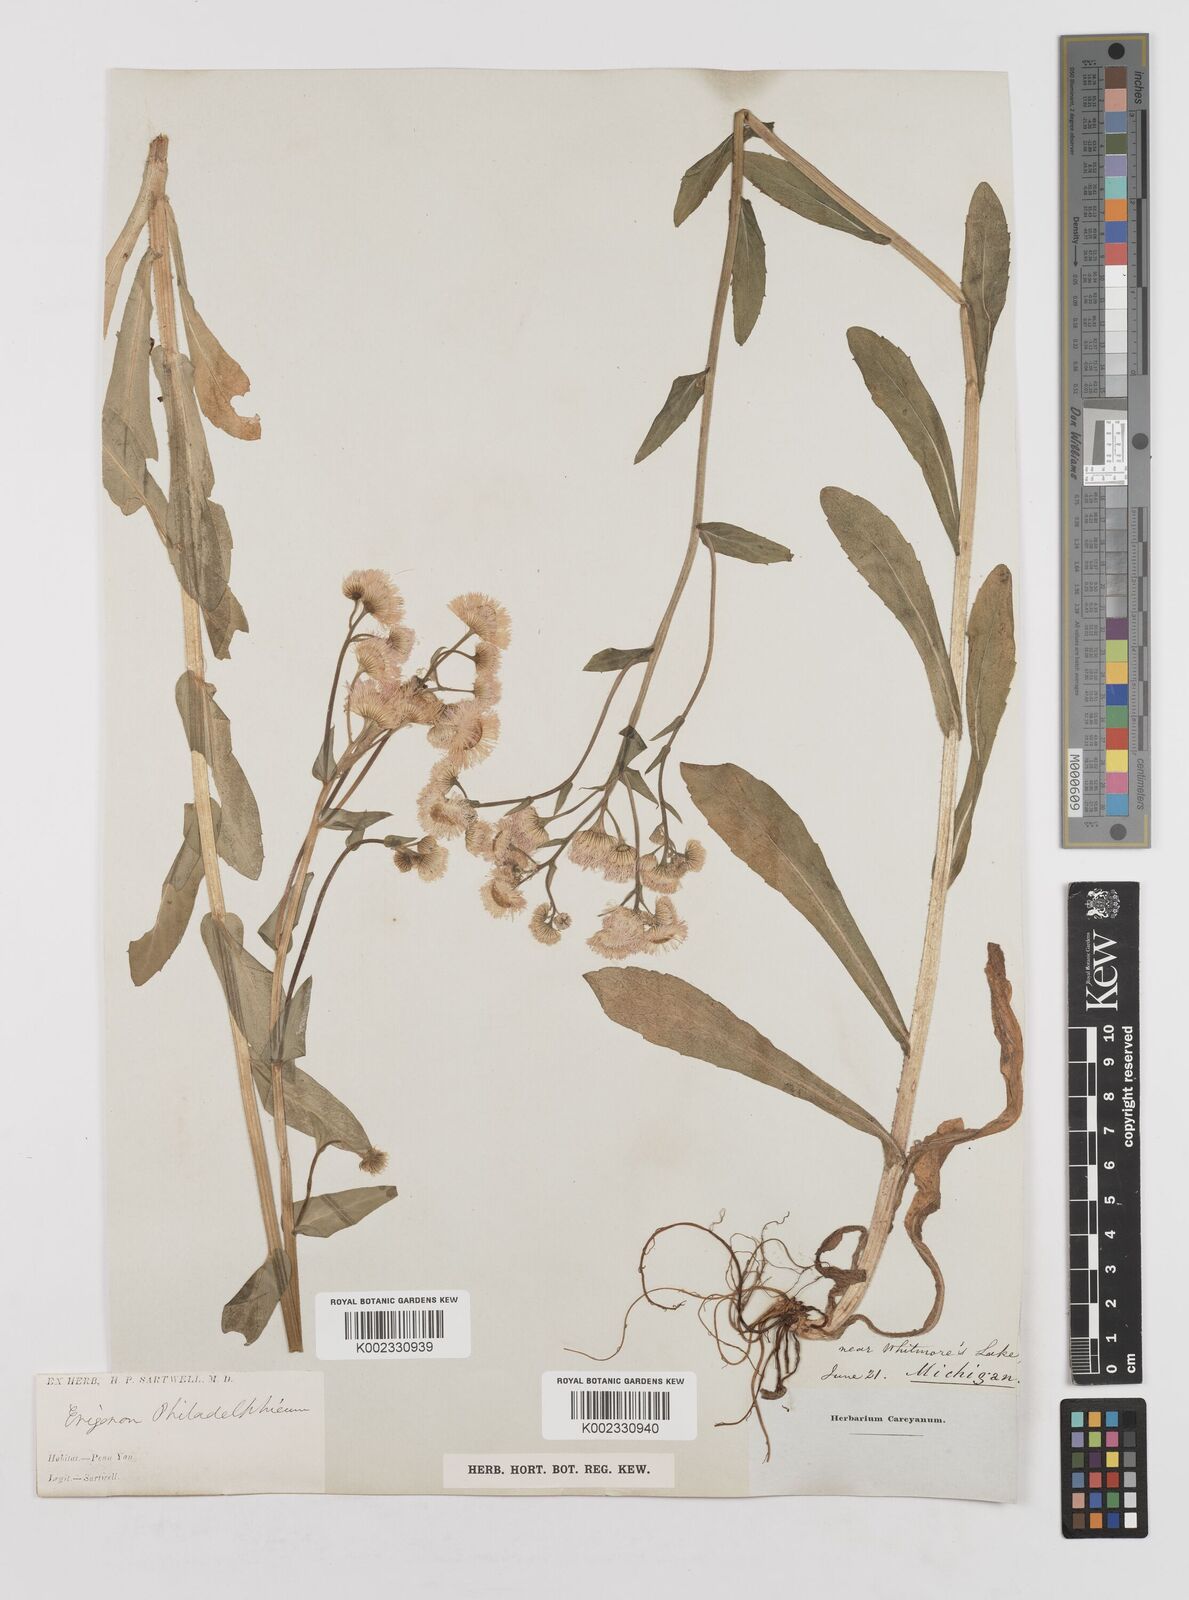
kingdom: Plantae
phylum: Tracheophyta
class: Magnoliopsida
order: Asterales
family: Asteraceae
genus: Erigeron
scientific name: Erigeron philadelphicus
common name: Robin's-plantain
